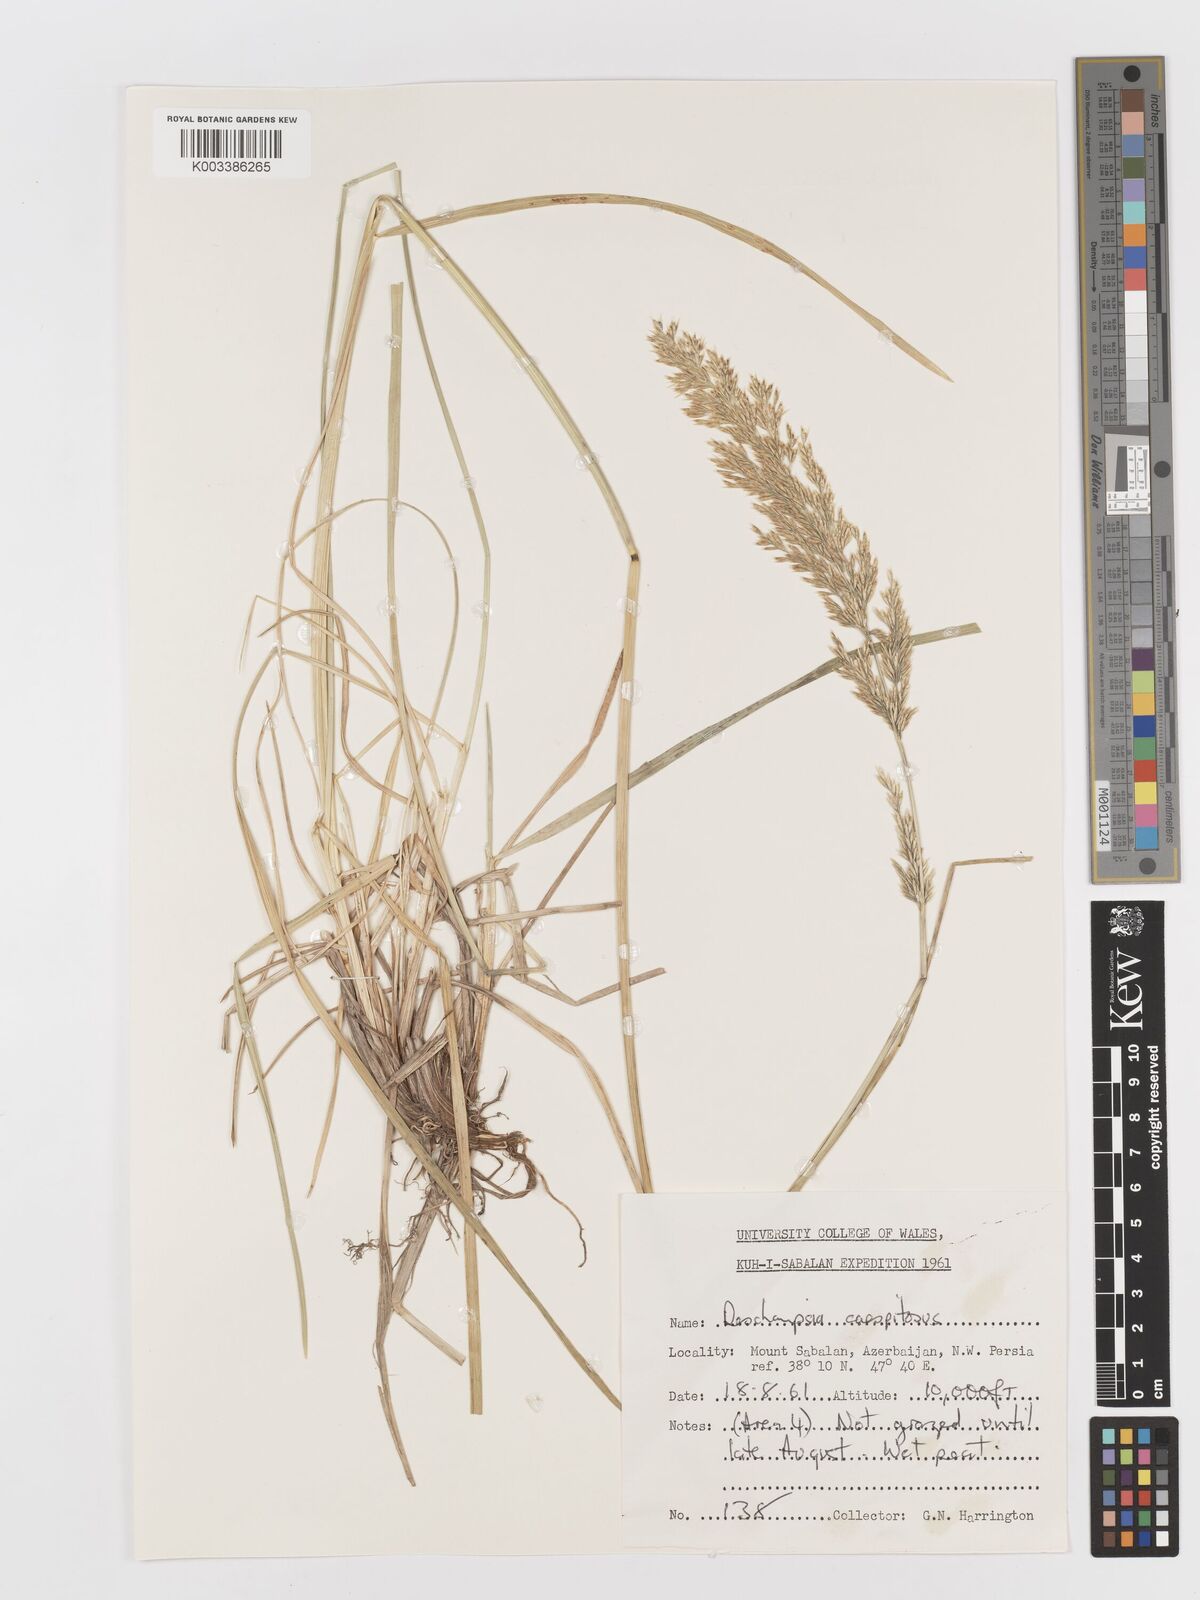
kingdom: Plantae
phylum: Tracheophyta
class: Liliopsida
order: Poales
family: Poaceae
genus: Deschampsia
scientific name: Deschampsia cespitosa
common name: Tufted hair-grass
